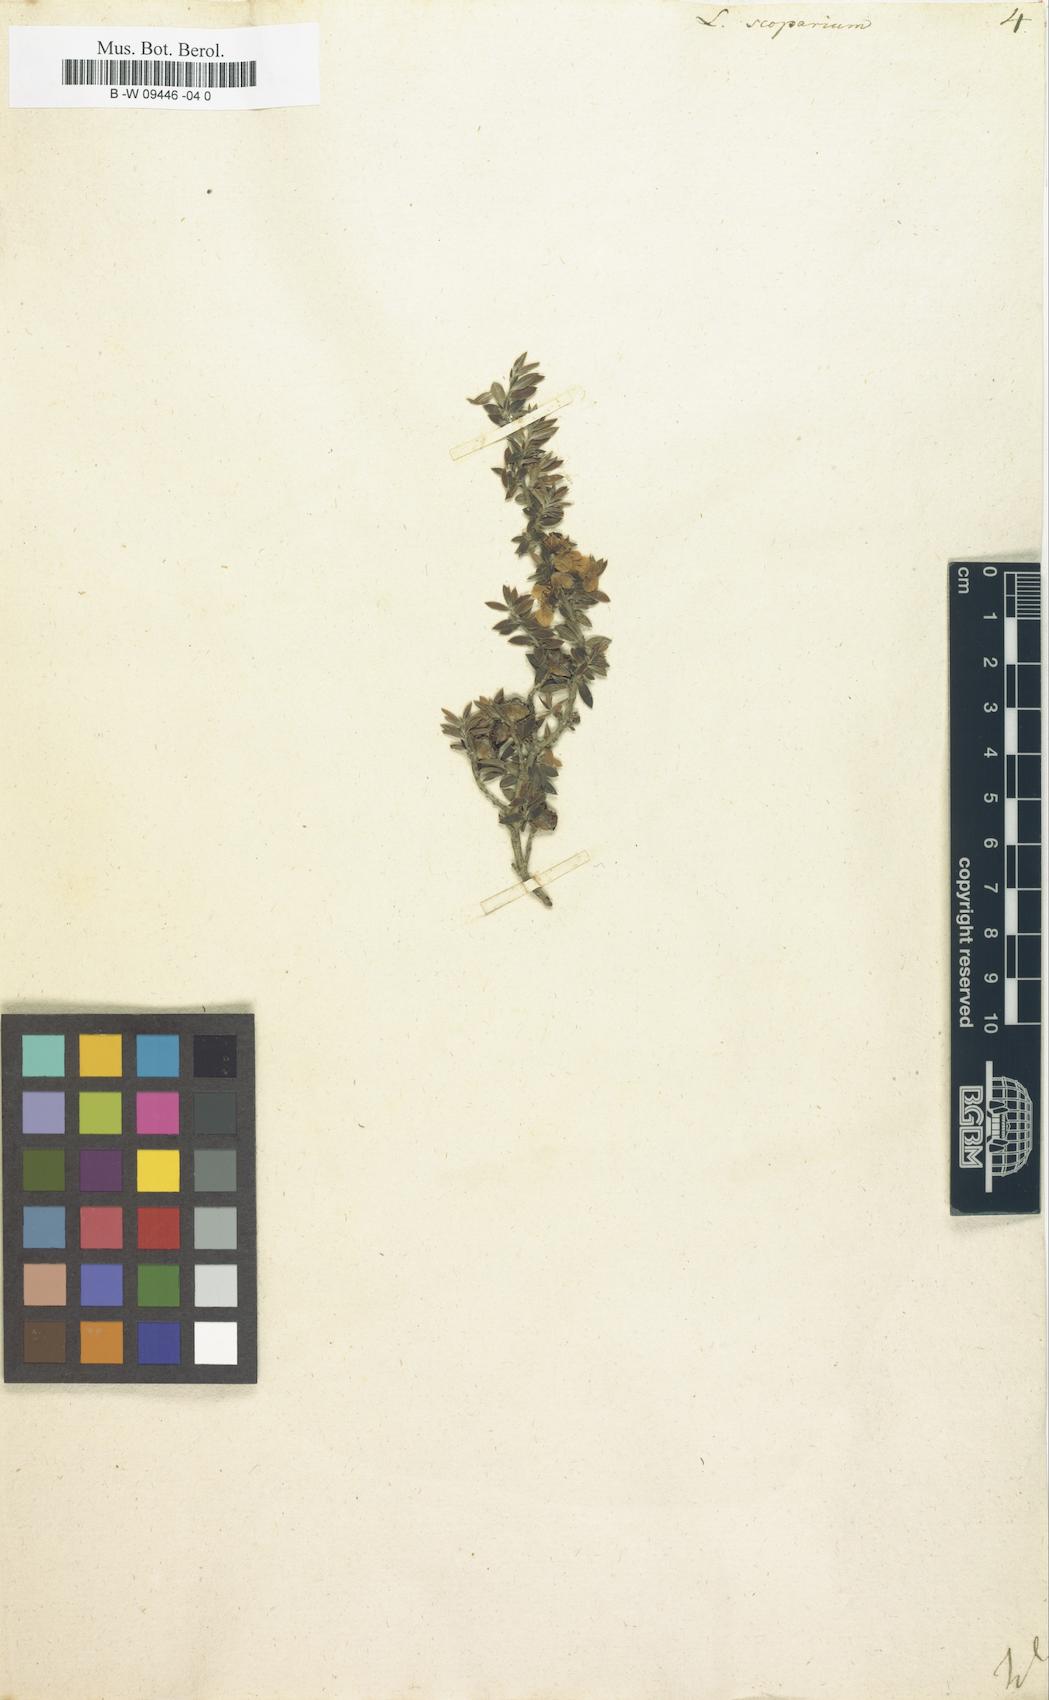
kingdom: Plantae
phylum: Tracheophyta
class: Magnoliopsida
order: Myrtales
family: Myrtaceae
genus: Leptospermum
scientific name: Leptospermum scoparium
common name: Broom tea-tree
